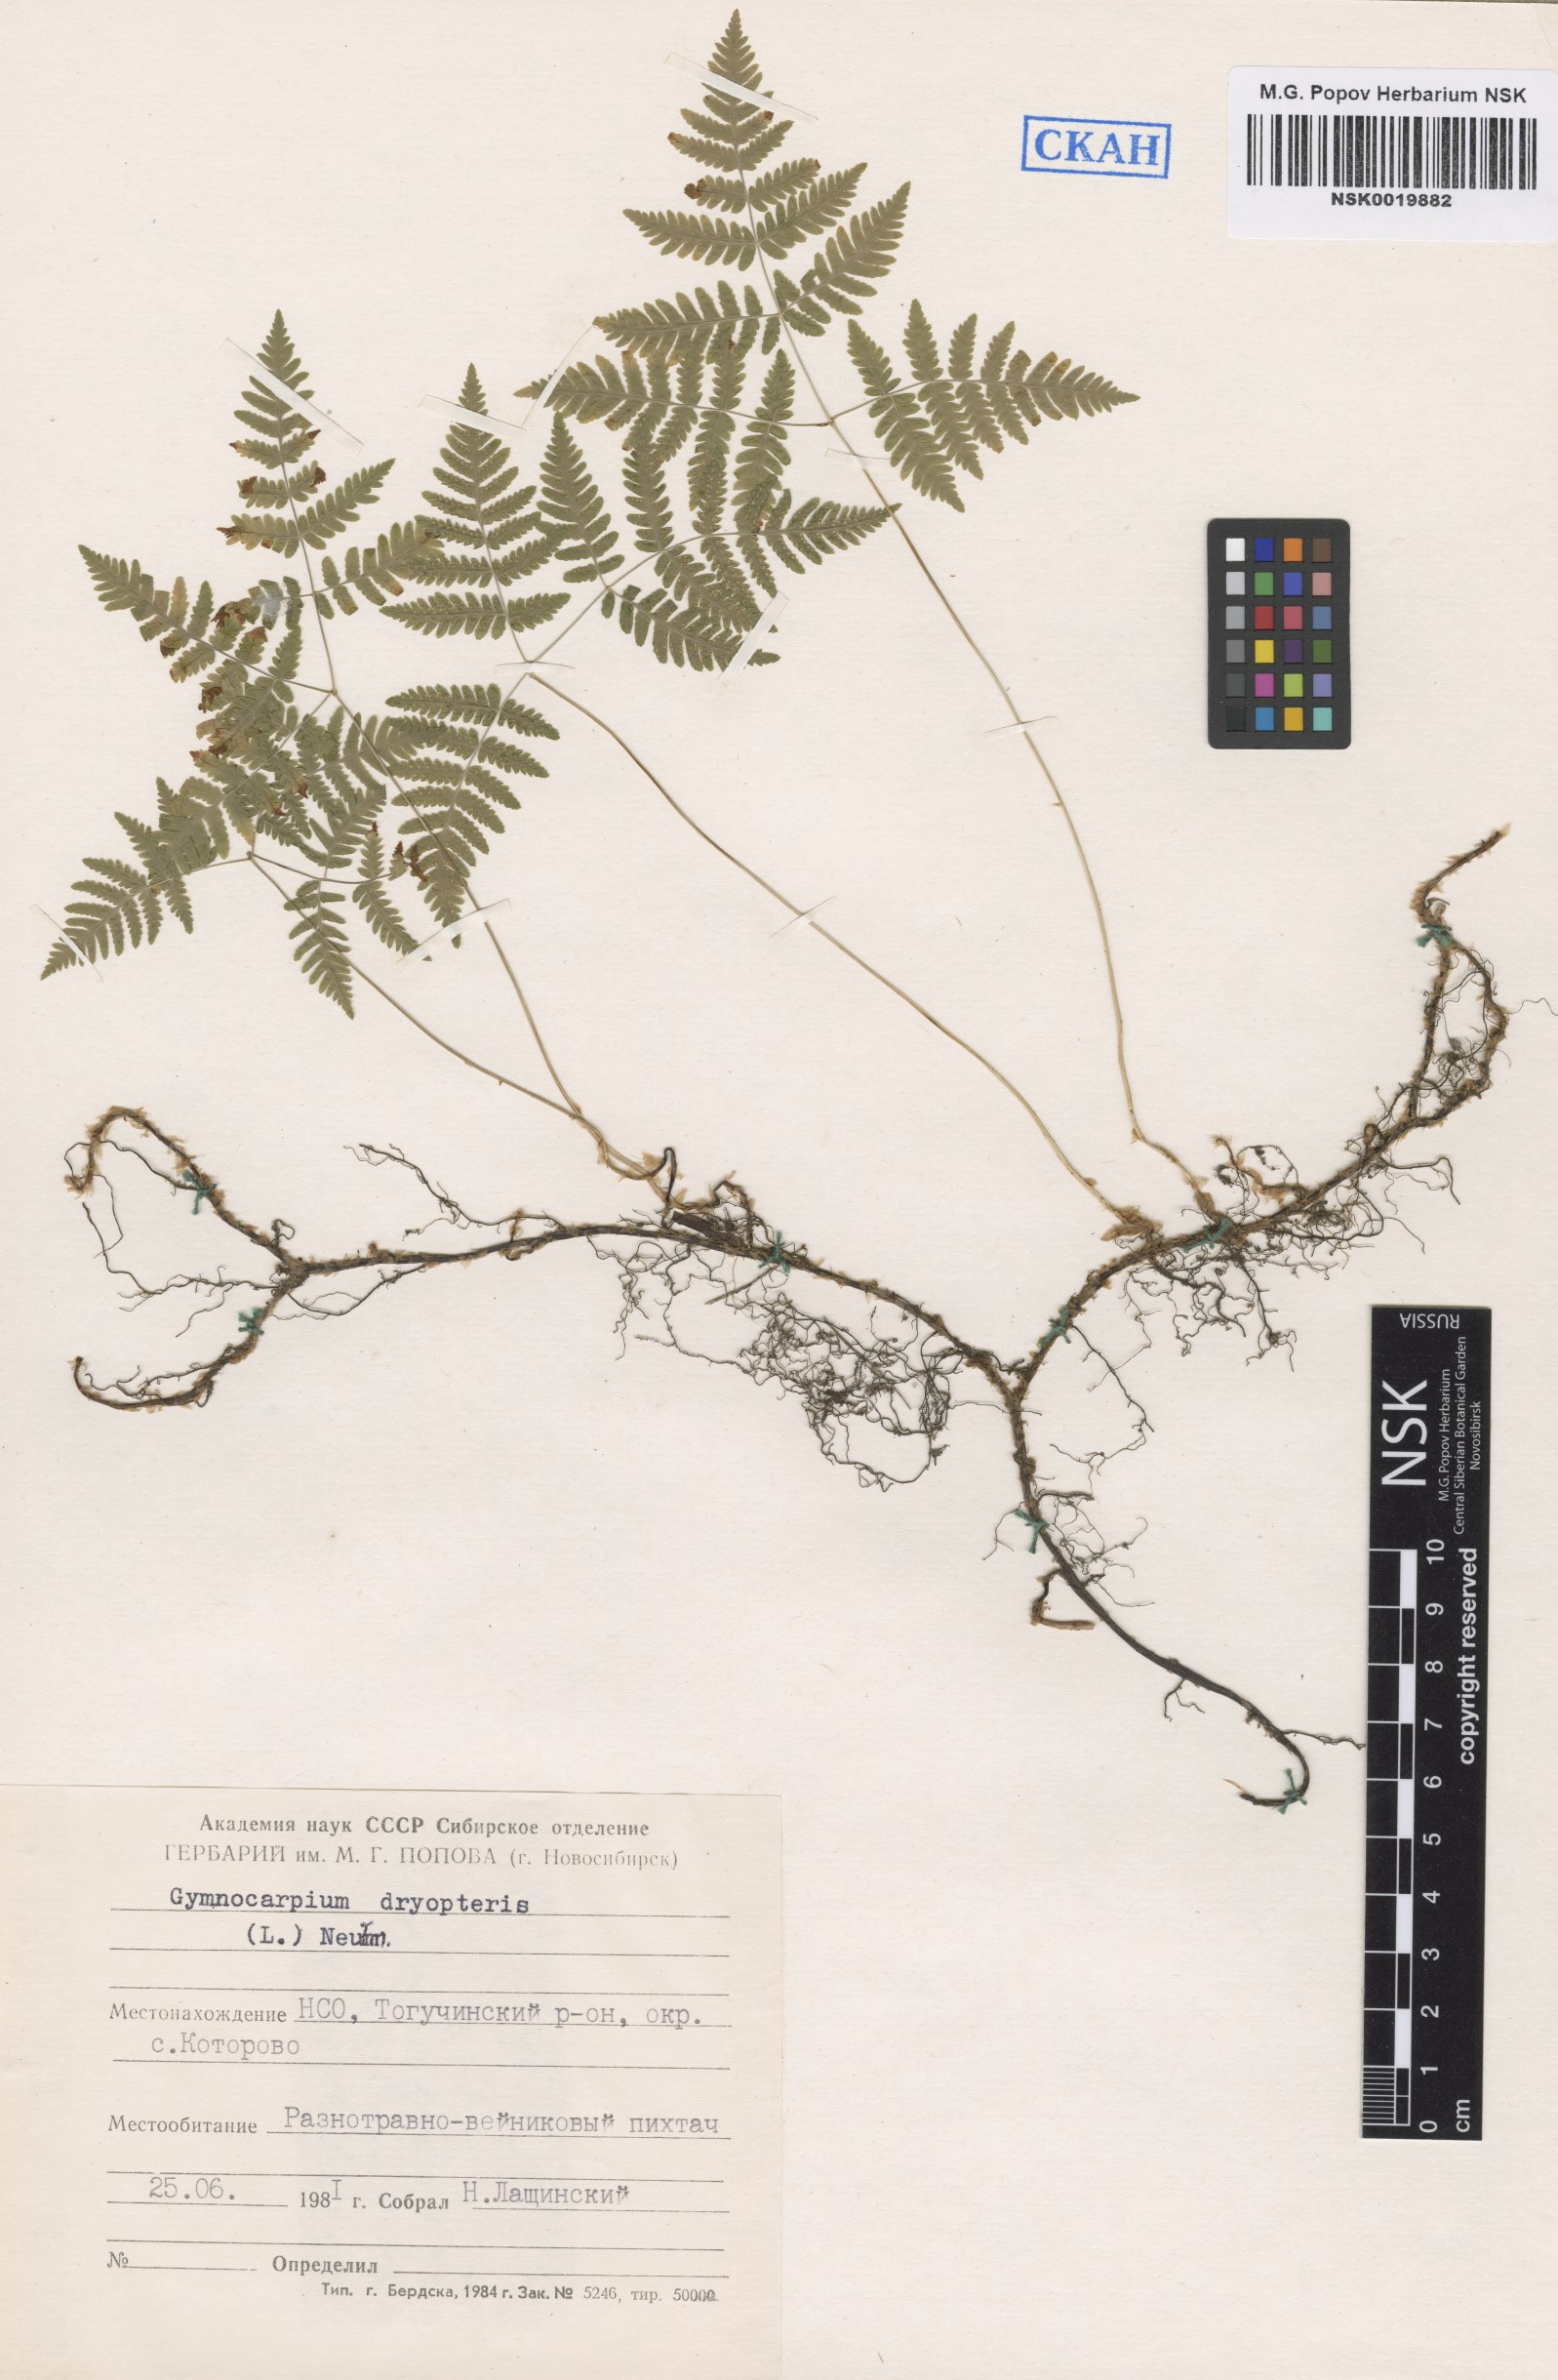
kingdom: Plantae
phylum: Tracheophyta
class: Polypodiopsida
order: Polypodiales
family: Cystopteridaceae
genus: Gymnocarpium
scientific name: Gymnocarpium dryopteris
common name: Oak fern
